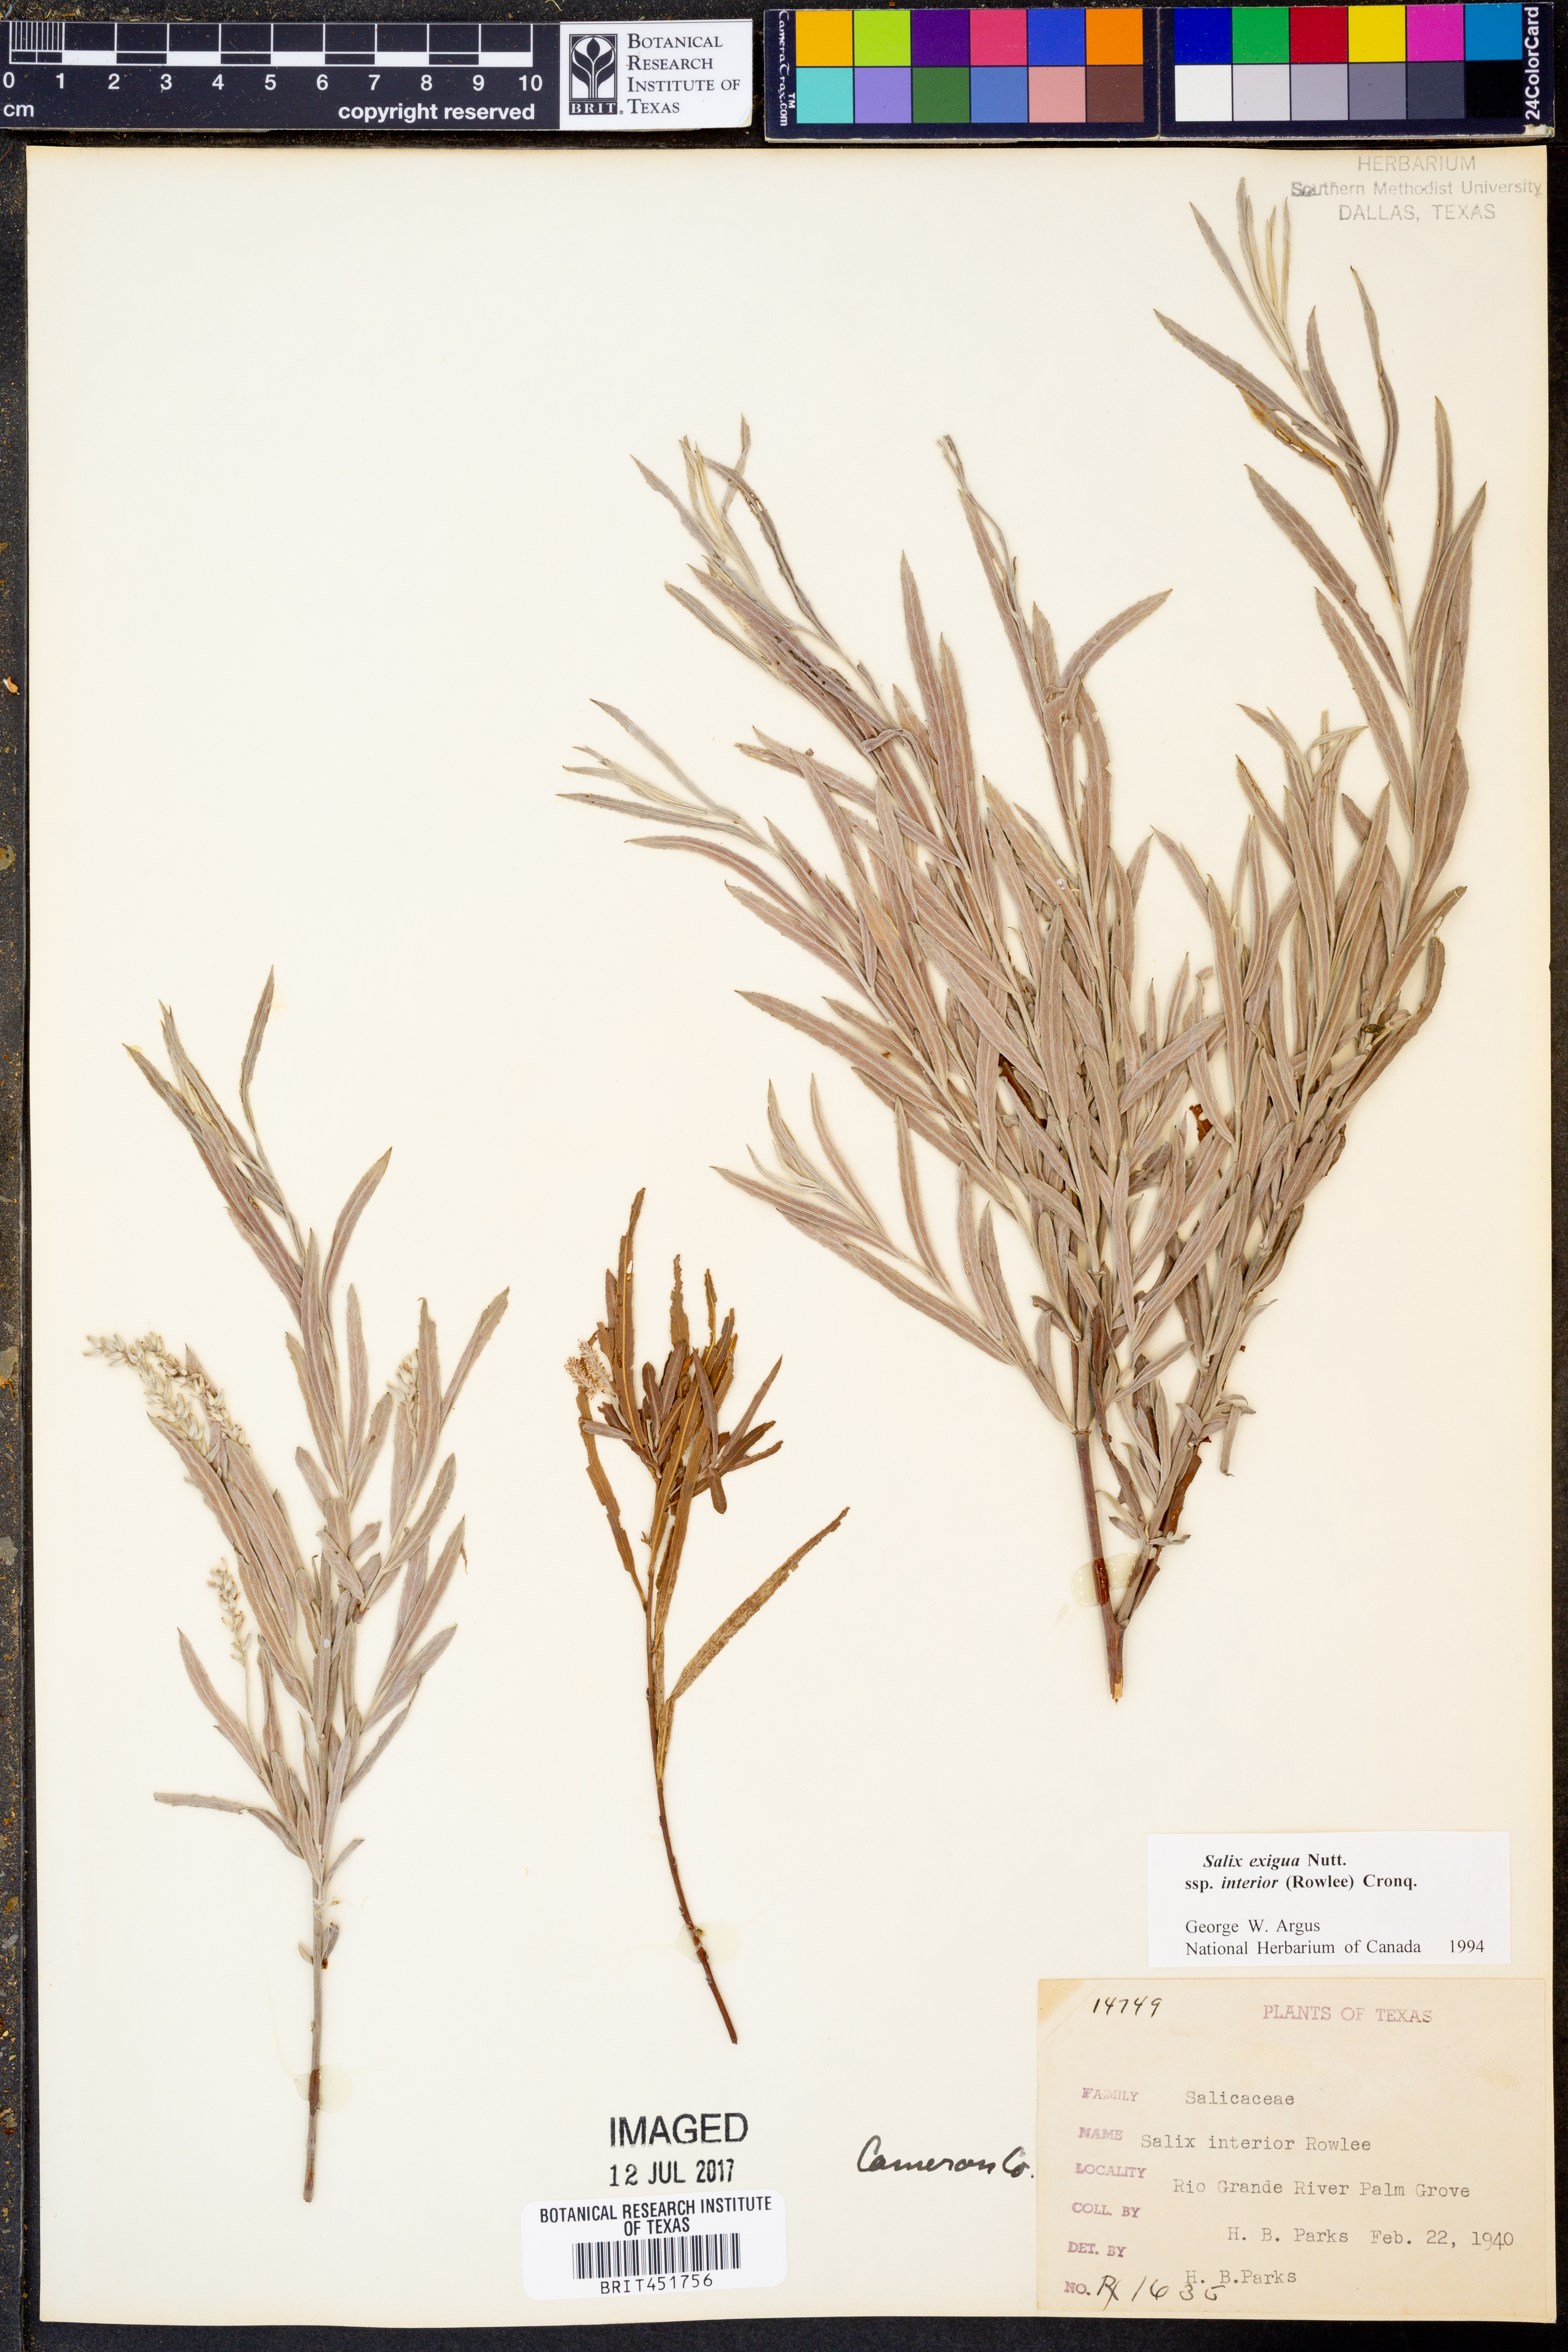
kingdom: Plantae
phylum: Tracheophyta
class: Magnoliopsida
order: Malpighiales
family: Salicaceae
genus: Salix
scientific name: Salix interior
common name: Sandbar willow
